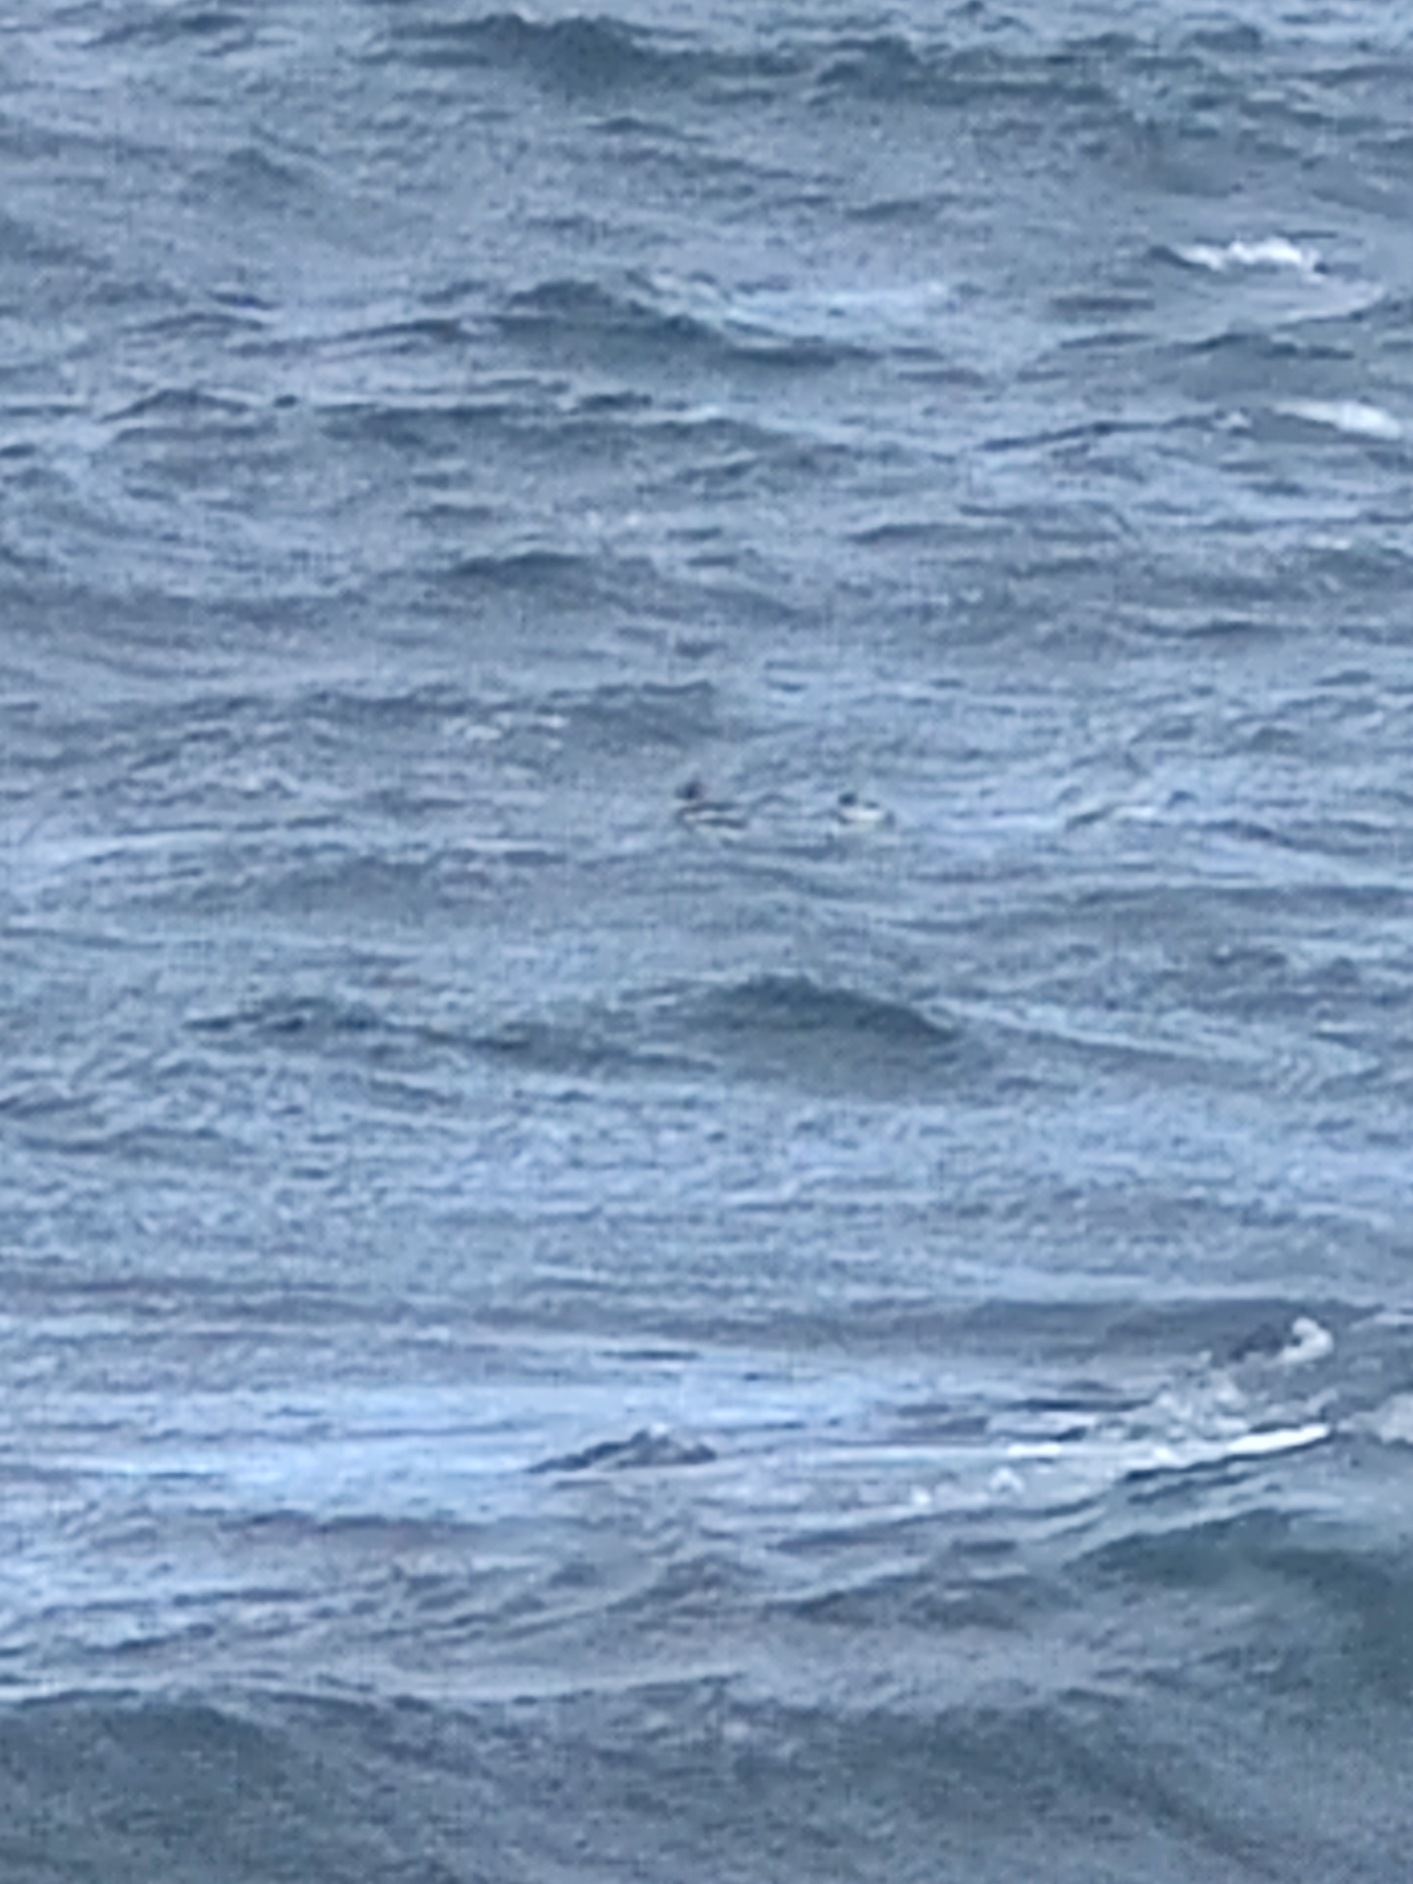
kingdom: Animalia
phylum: Chordata
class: Aves
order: Anseriformes
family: Anatidae
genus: Mergus
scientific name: Mergus serrator
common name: Toppet skallesluger
